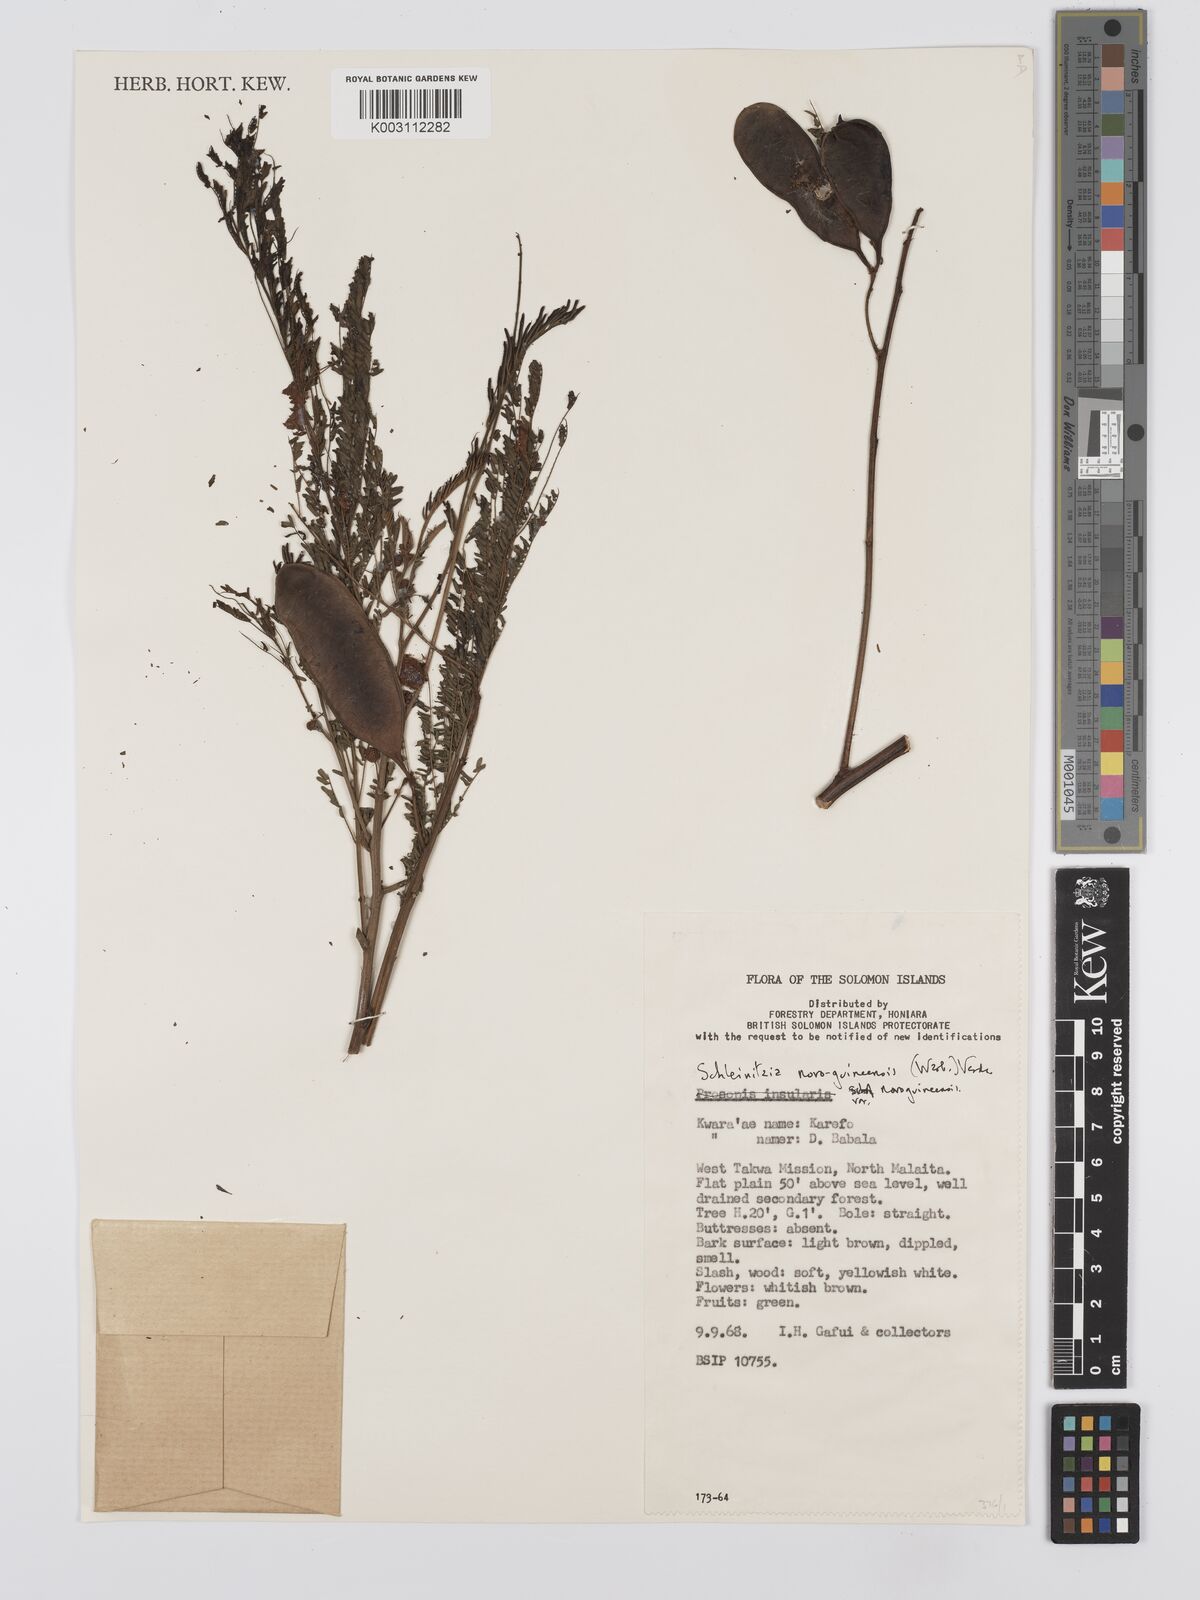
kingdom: Plantae
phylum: Tracheophyta
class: Magnoliopsida
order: Fabales
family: Fabaceae
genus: Schleinitzia
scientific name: Schleinitzia novoguineensis
